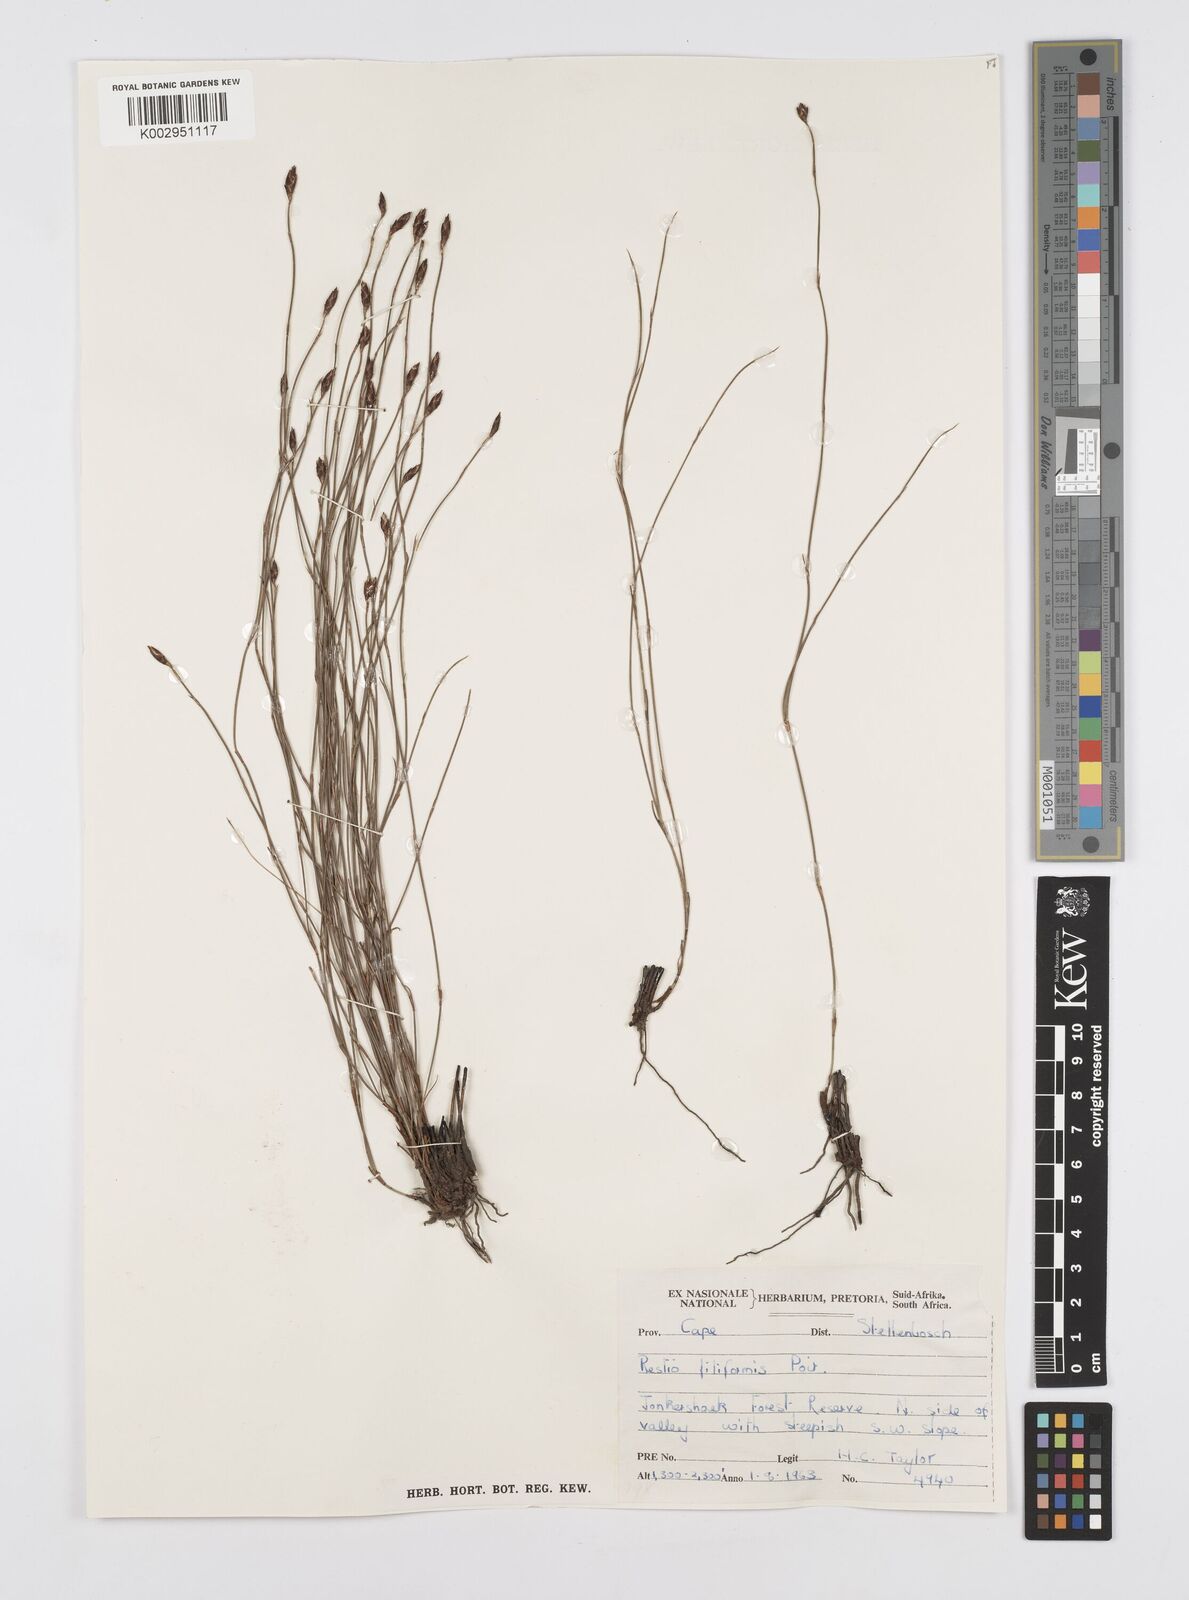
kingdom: Plantae
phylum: Tracheophyta
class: Liliopsida
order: Poales
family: Restionaceae
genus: Restio
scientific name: Restio filiformis
